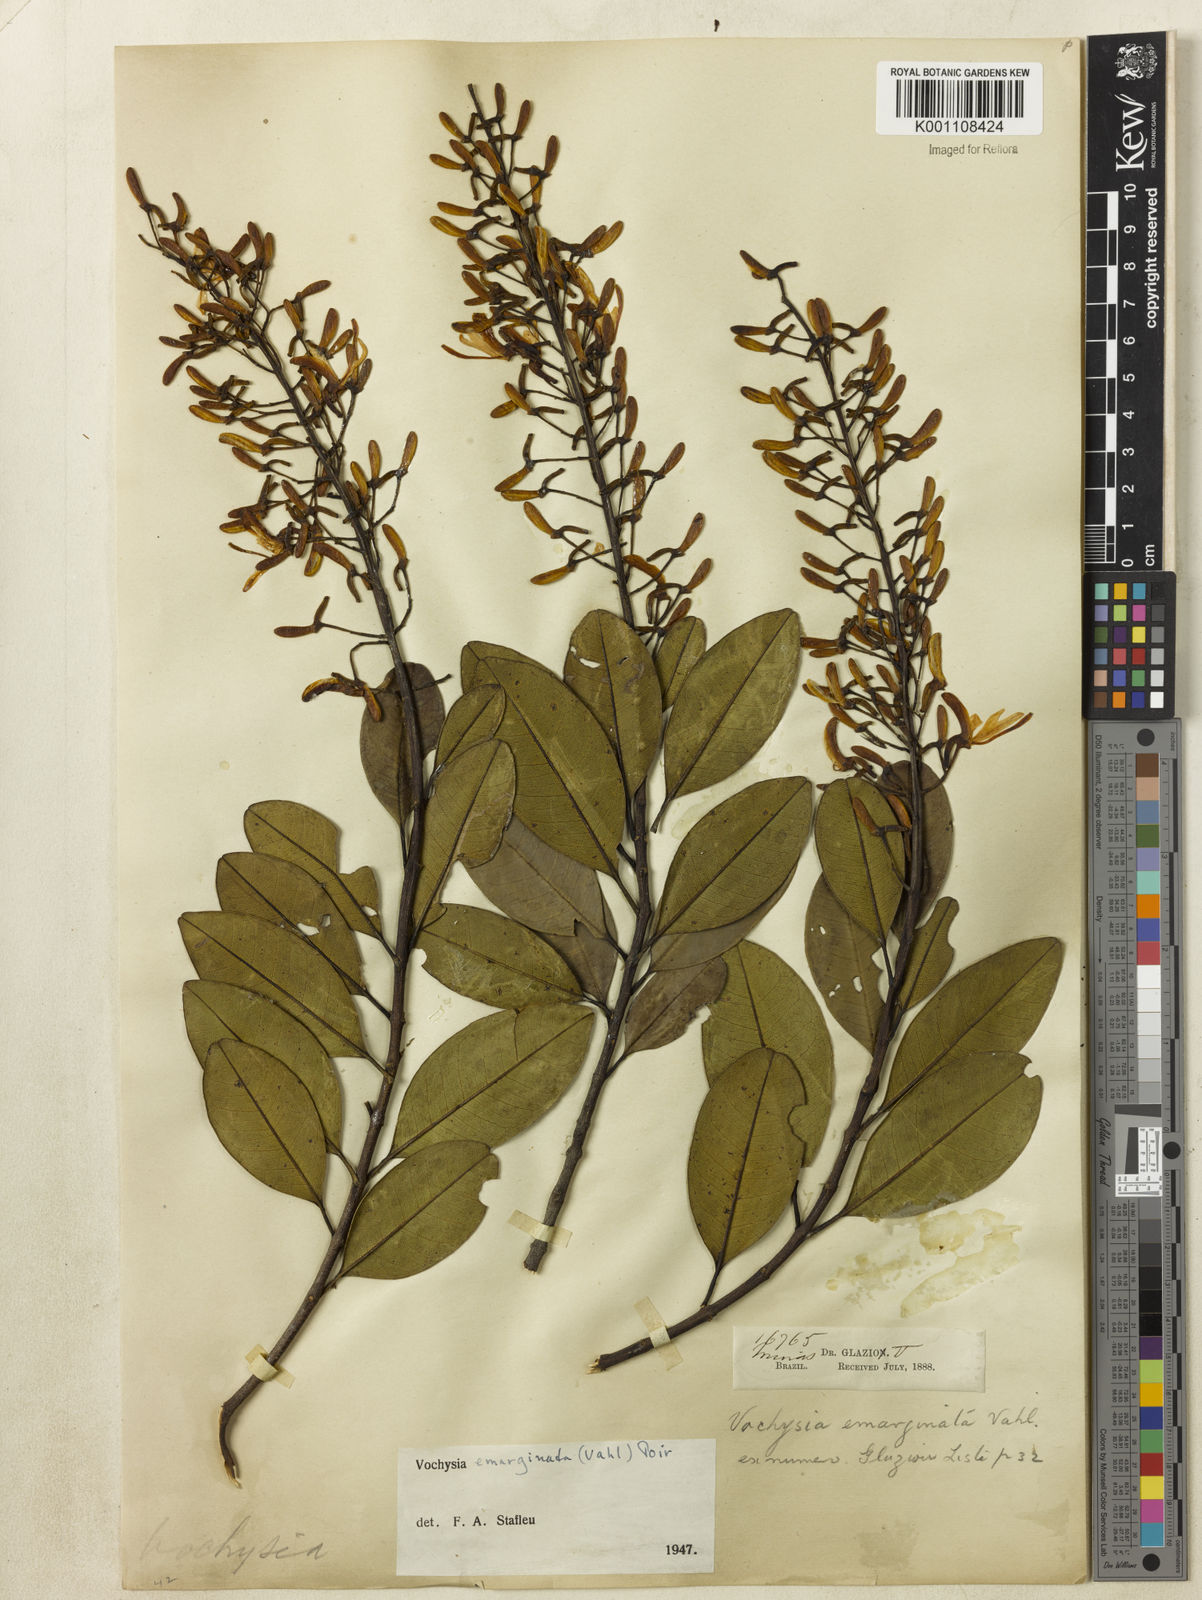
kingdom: Plantae
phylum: Tracheophyta
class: Magnoliopsida
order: Myrtales
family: Vochysiaceae
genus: Vochysia
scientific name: Vochysia
